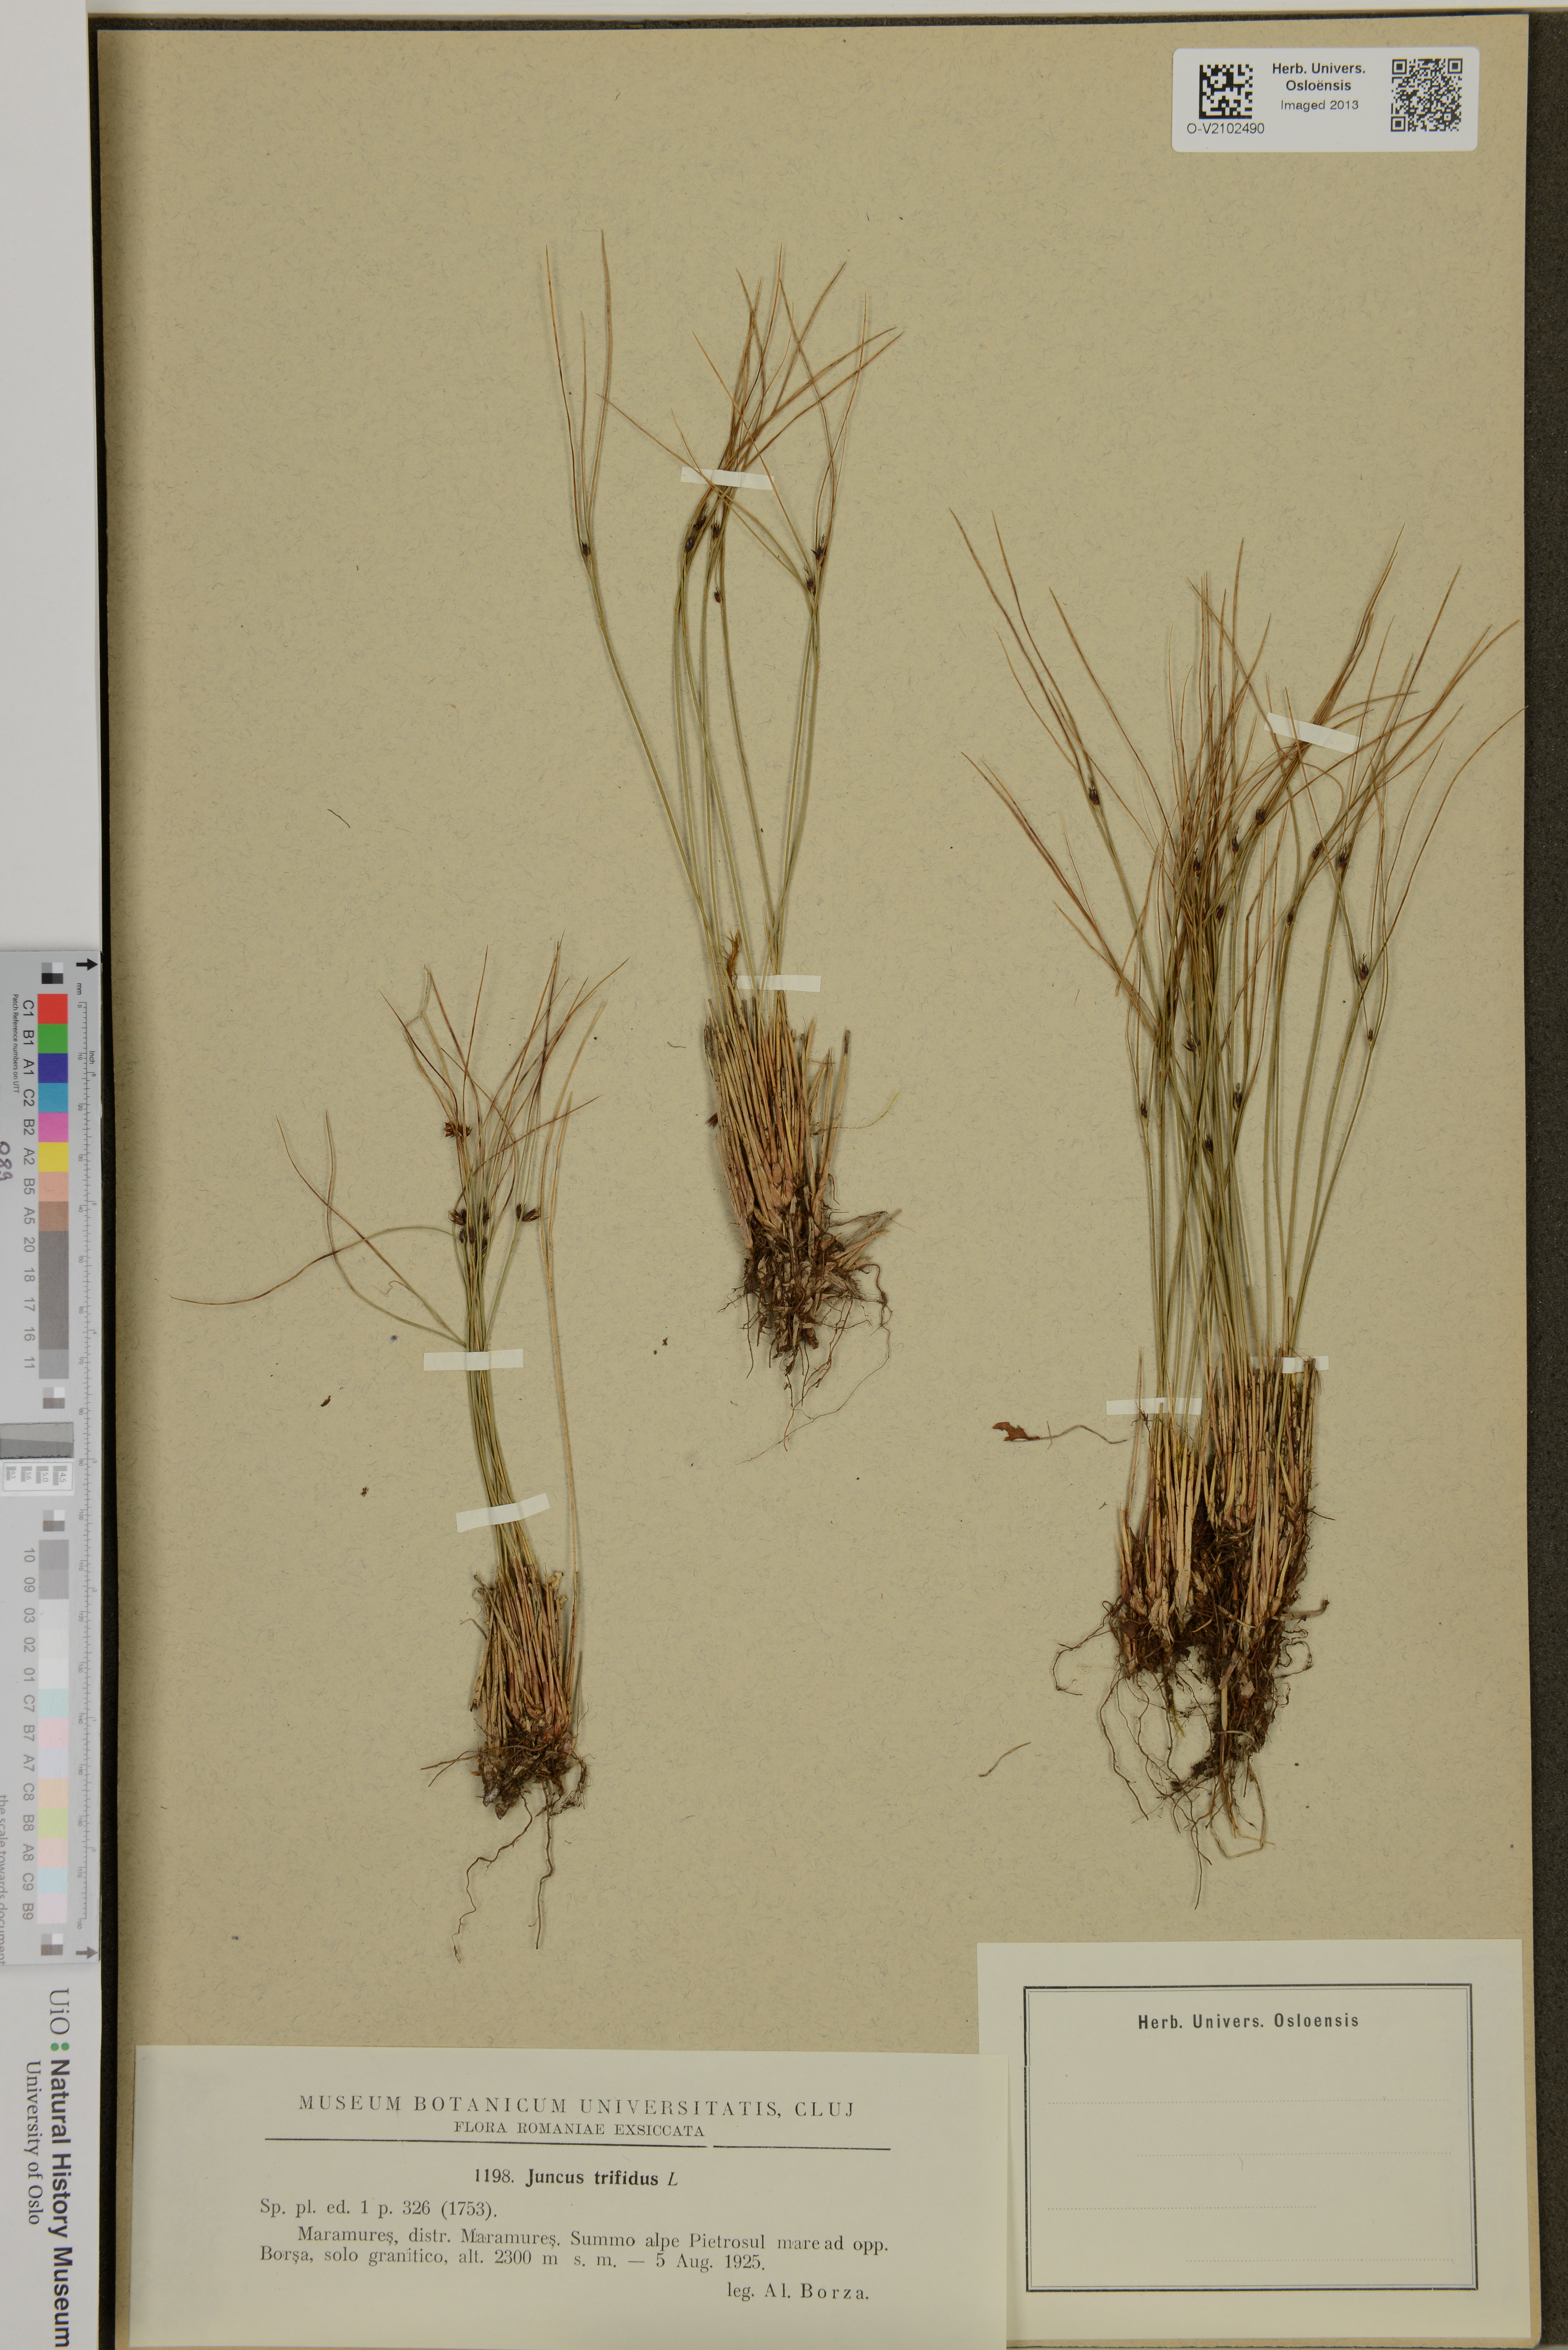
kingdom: Plantae
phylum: Tracheophyta
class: Liliopsida
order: Poales
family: Juncaceae
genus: Oreojuncus
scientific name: Oreojuncus trifidus
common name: Highland rush
